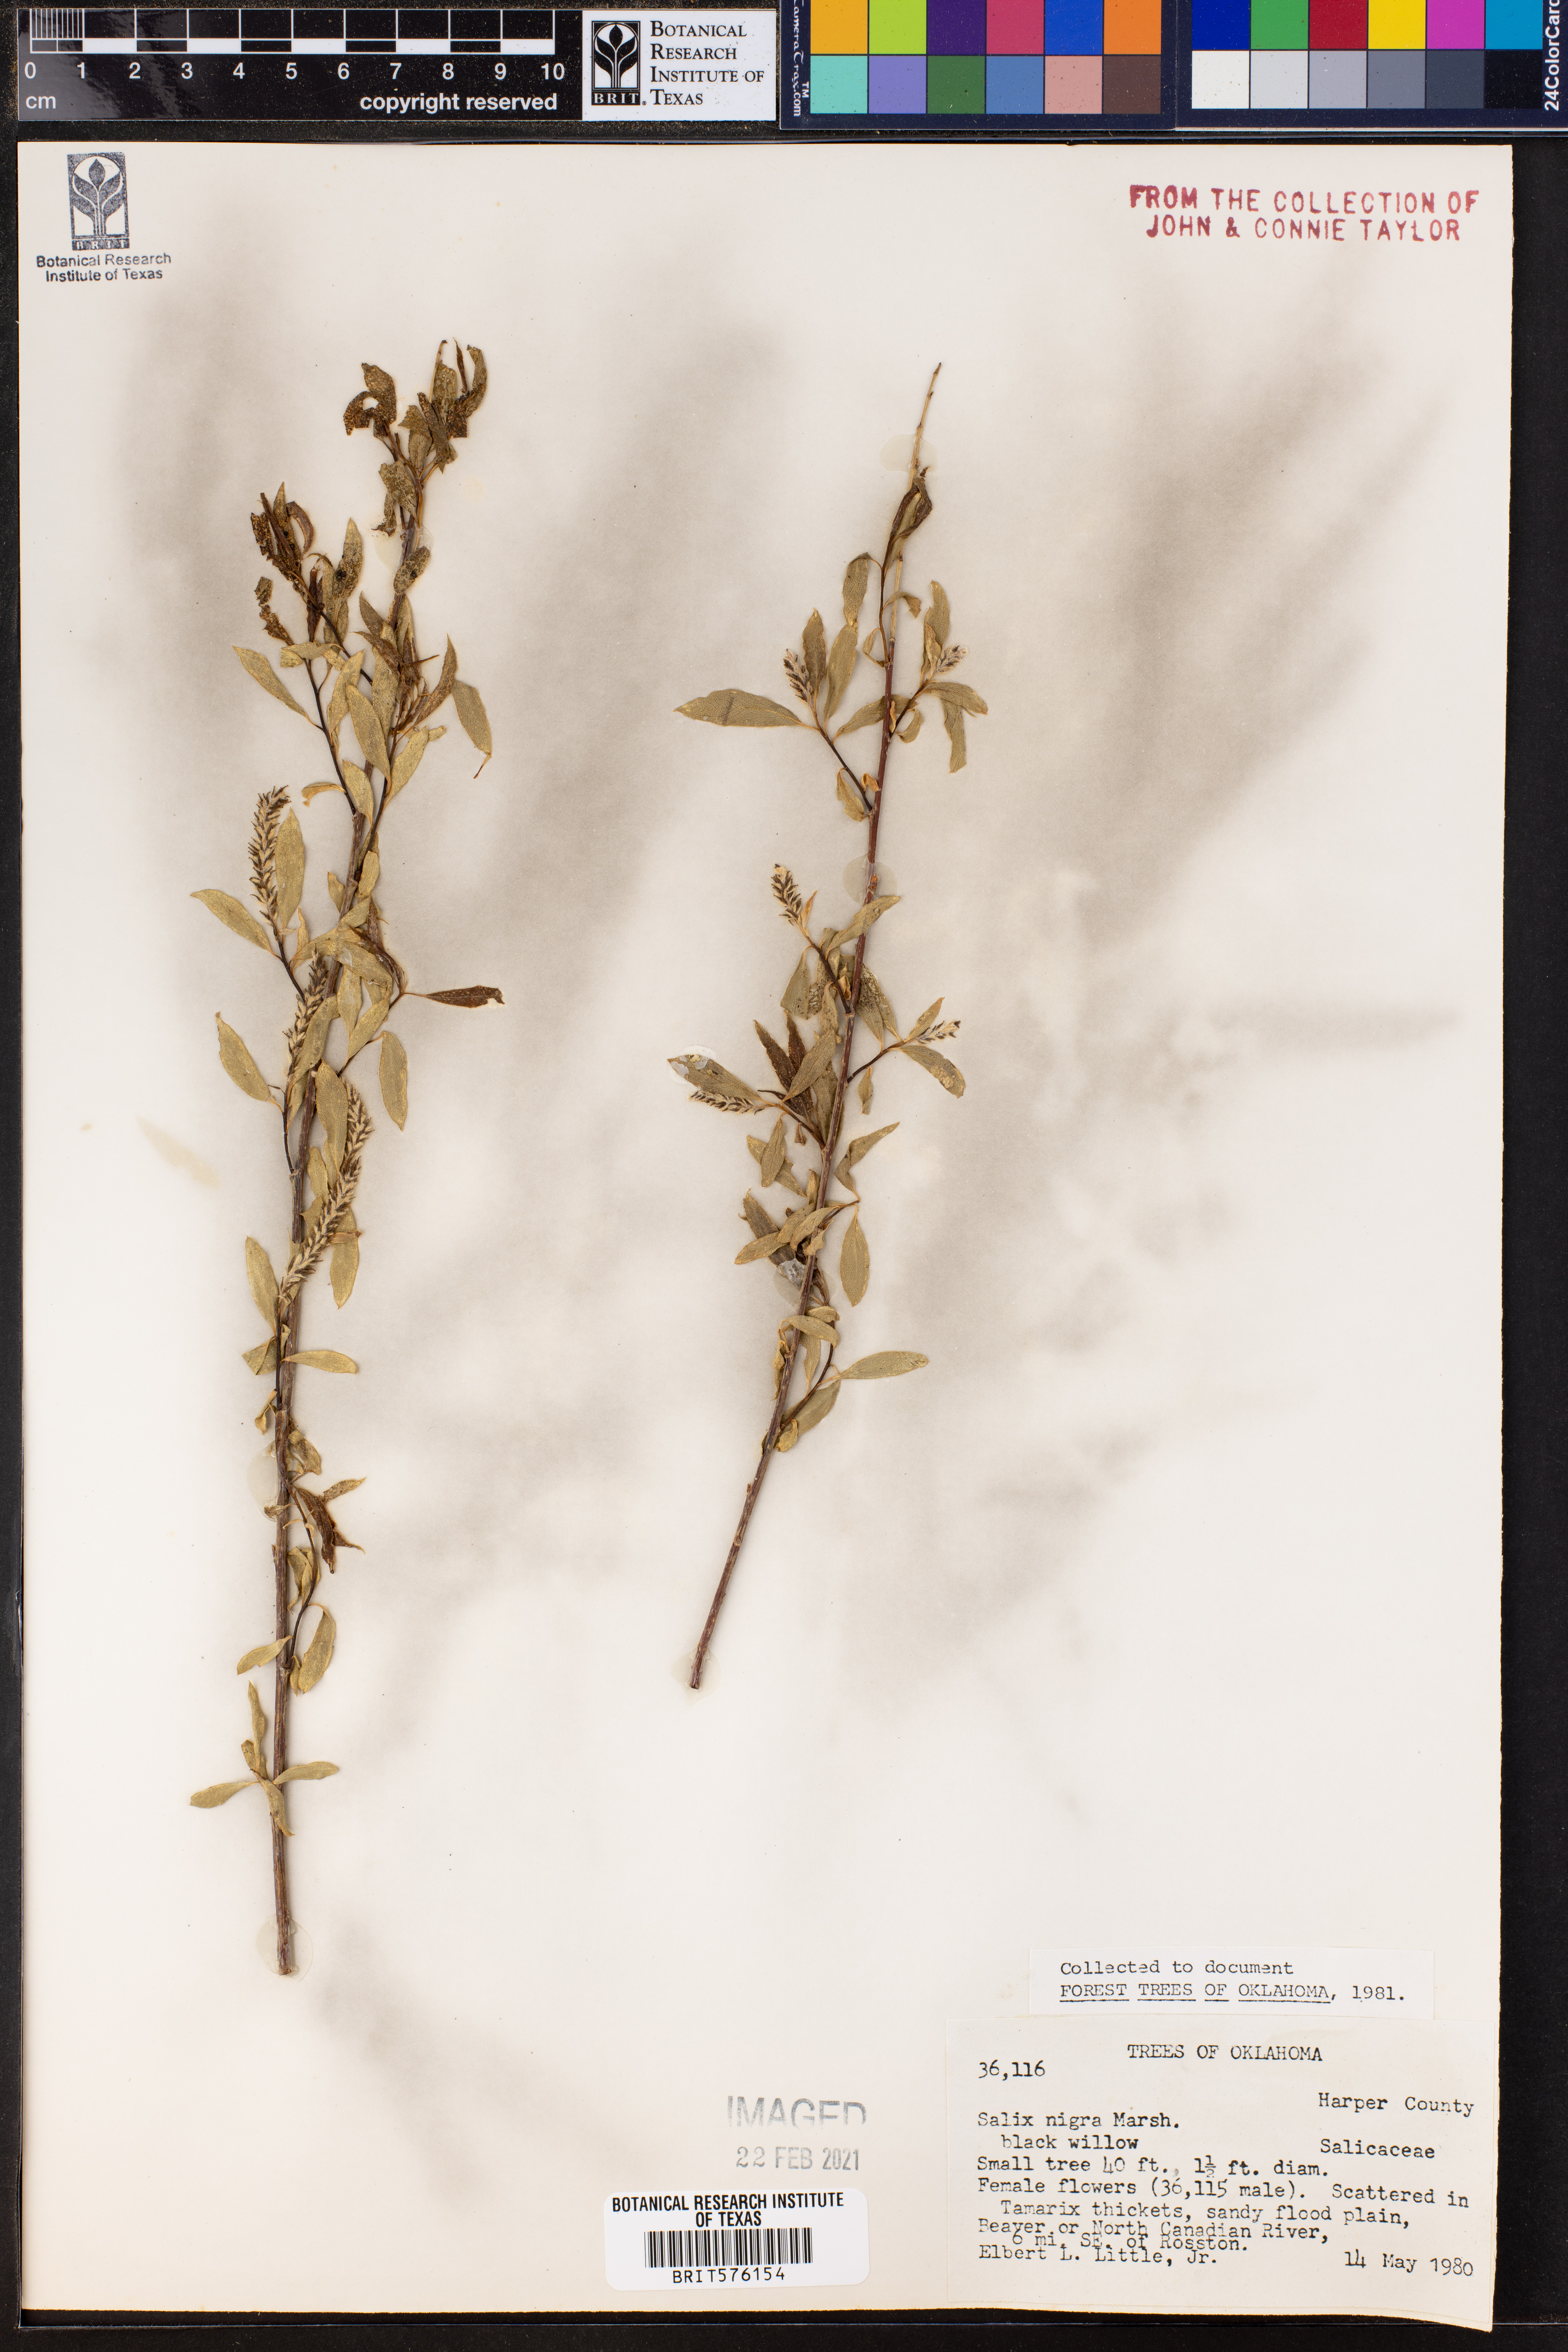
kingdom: Plantae
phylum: Tracheophyta
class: Magnoliopsida
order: Malpighiales
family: Salicaceae
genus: Salix
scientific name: Salix nigra
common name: Black willow
